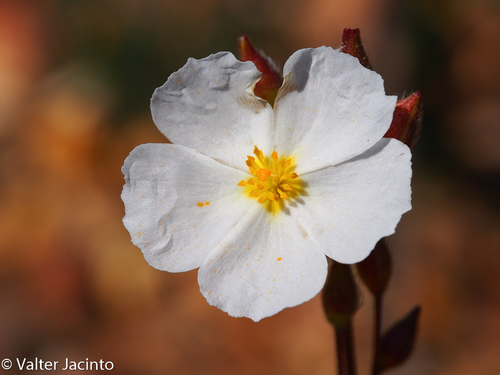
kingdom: Plantae
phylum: Tracheophyta
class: Magnoliopsida
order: Malvales
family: Cistaceae
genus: Halimium
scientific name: Halimium umbellatum
